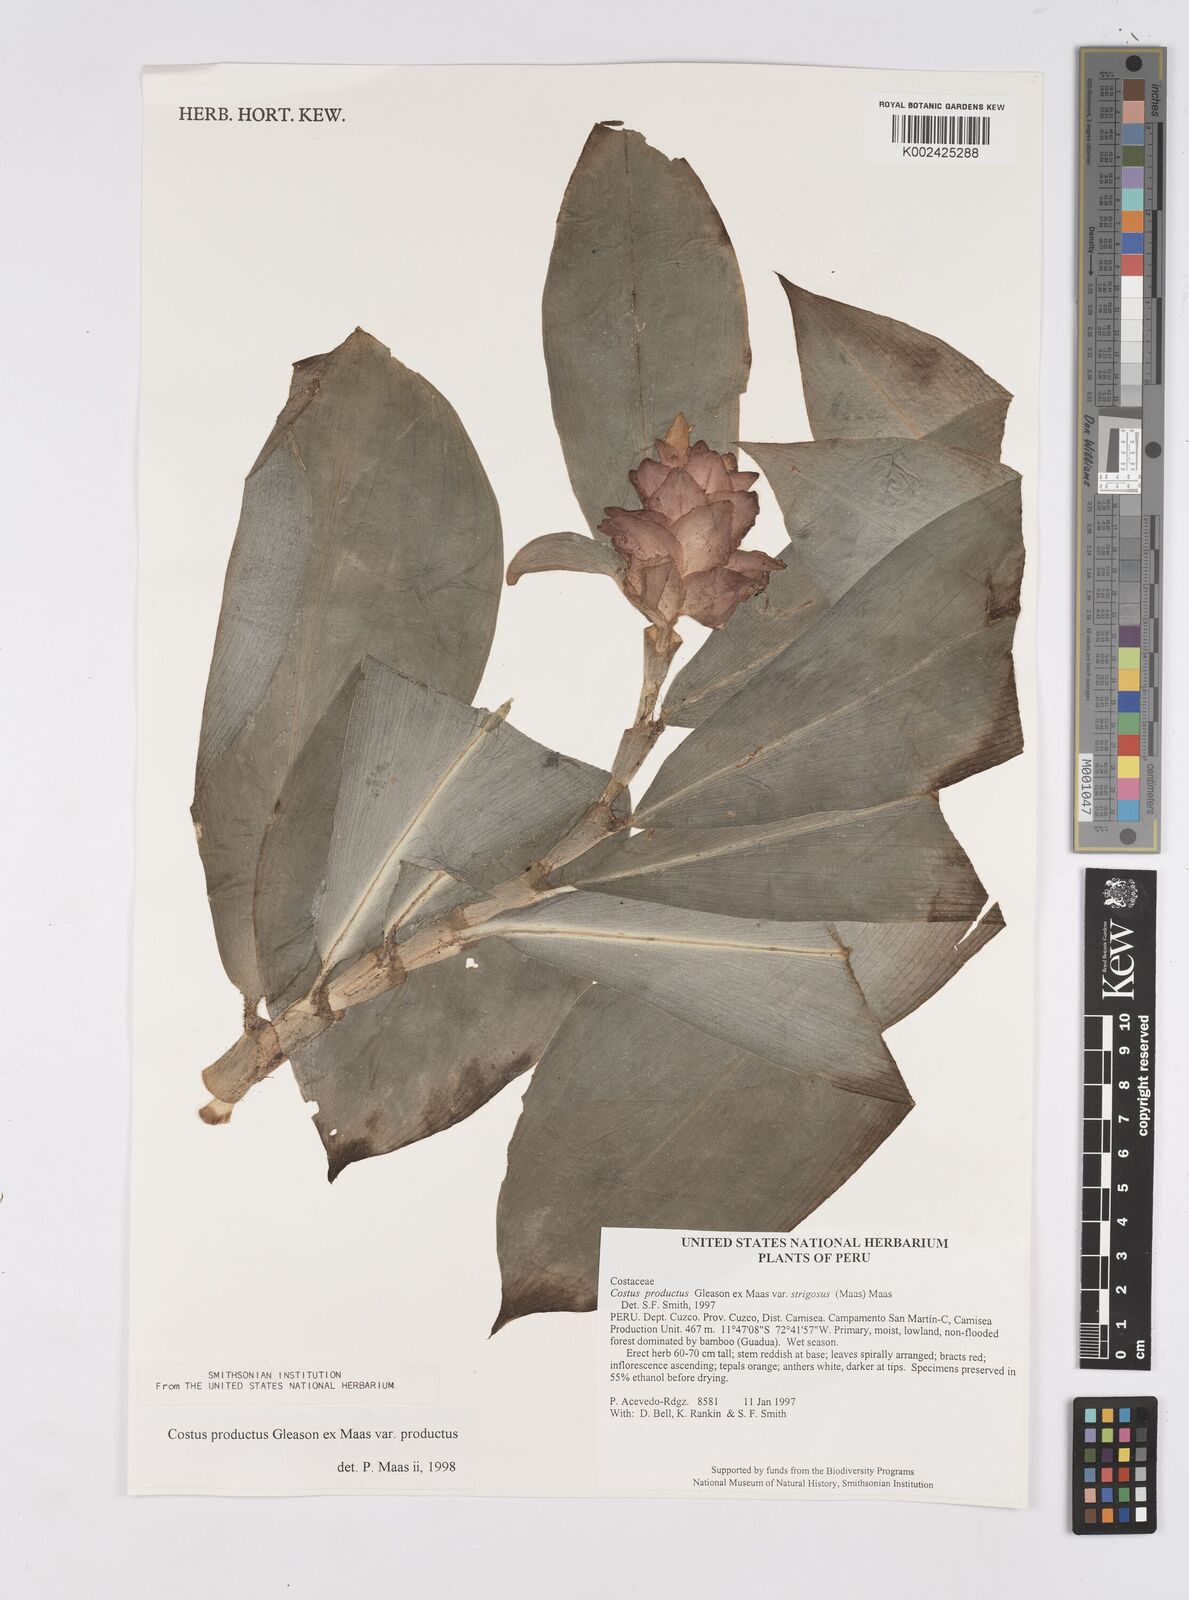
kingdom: Plantae
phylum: Tracheophyta
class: Liliopsida
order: Zingiberales
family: Costaceae
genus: Costus
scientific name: Costus productus
